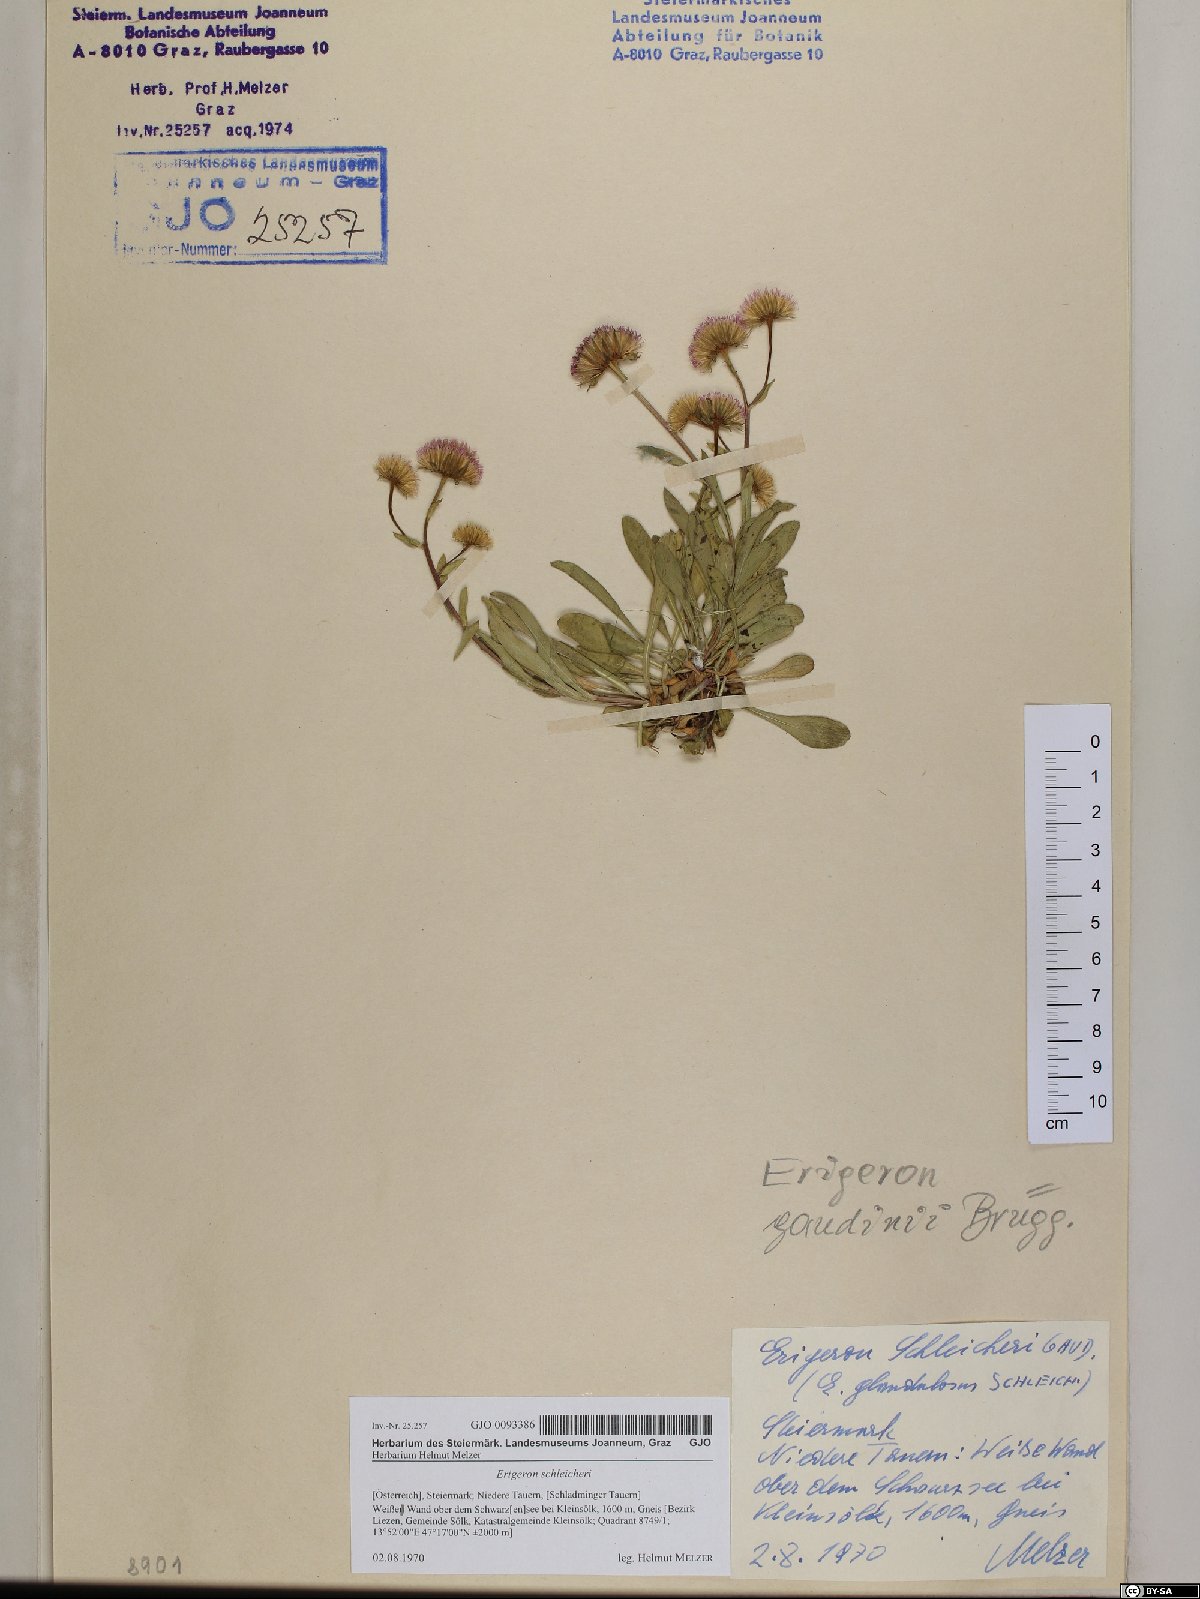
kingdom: Plantae
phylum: Tracheophyta
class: Magnoliopsida
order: Asterales
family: Asteraceae
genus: Erigeron
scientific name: Erigeron schleicheri
